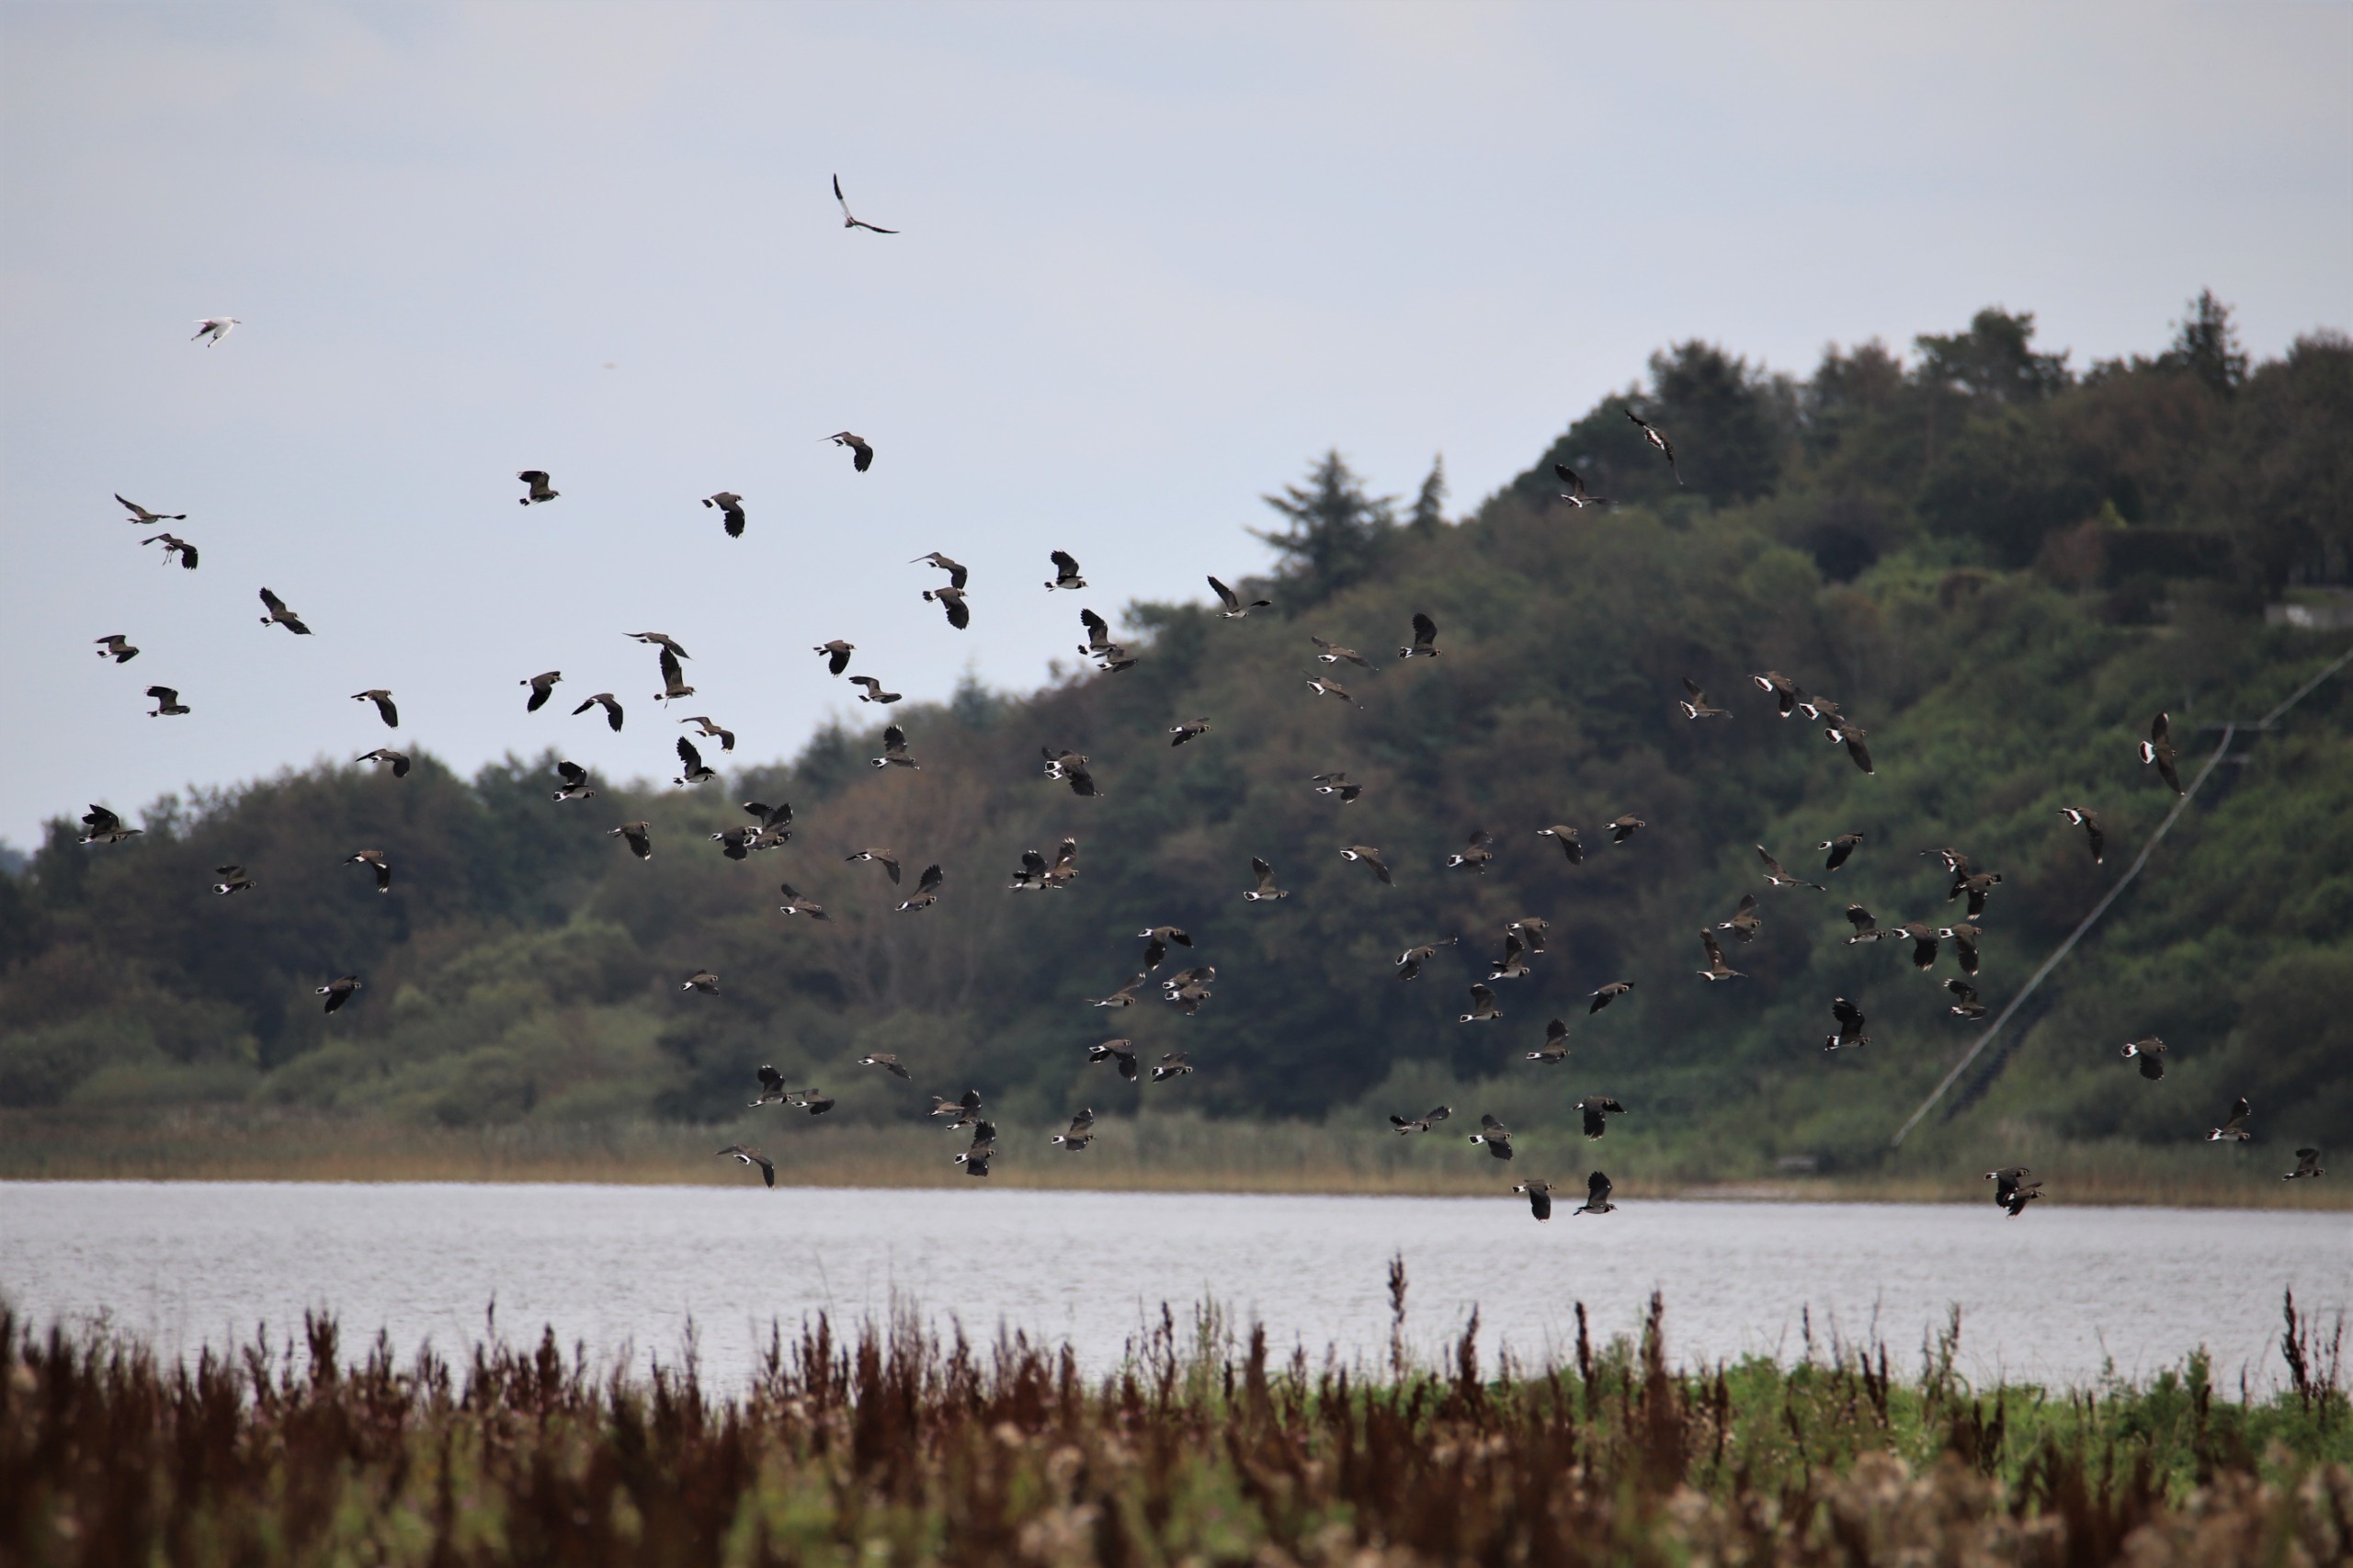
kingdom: Animalia
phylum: Chordata
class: Aves
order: Charadriiformes
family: Charadriidae
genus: Vanellus
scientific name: Vanellus vanellus
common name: Vibe
